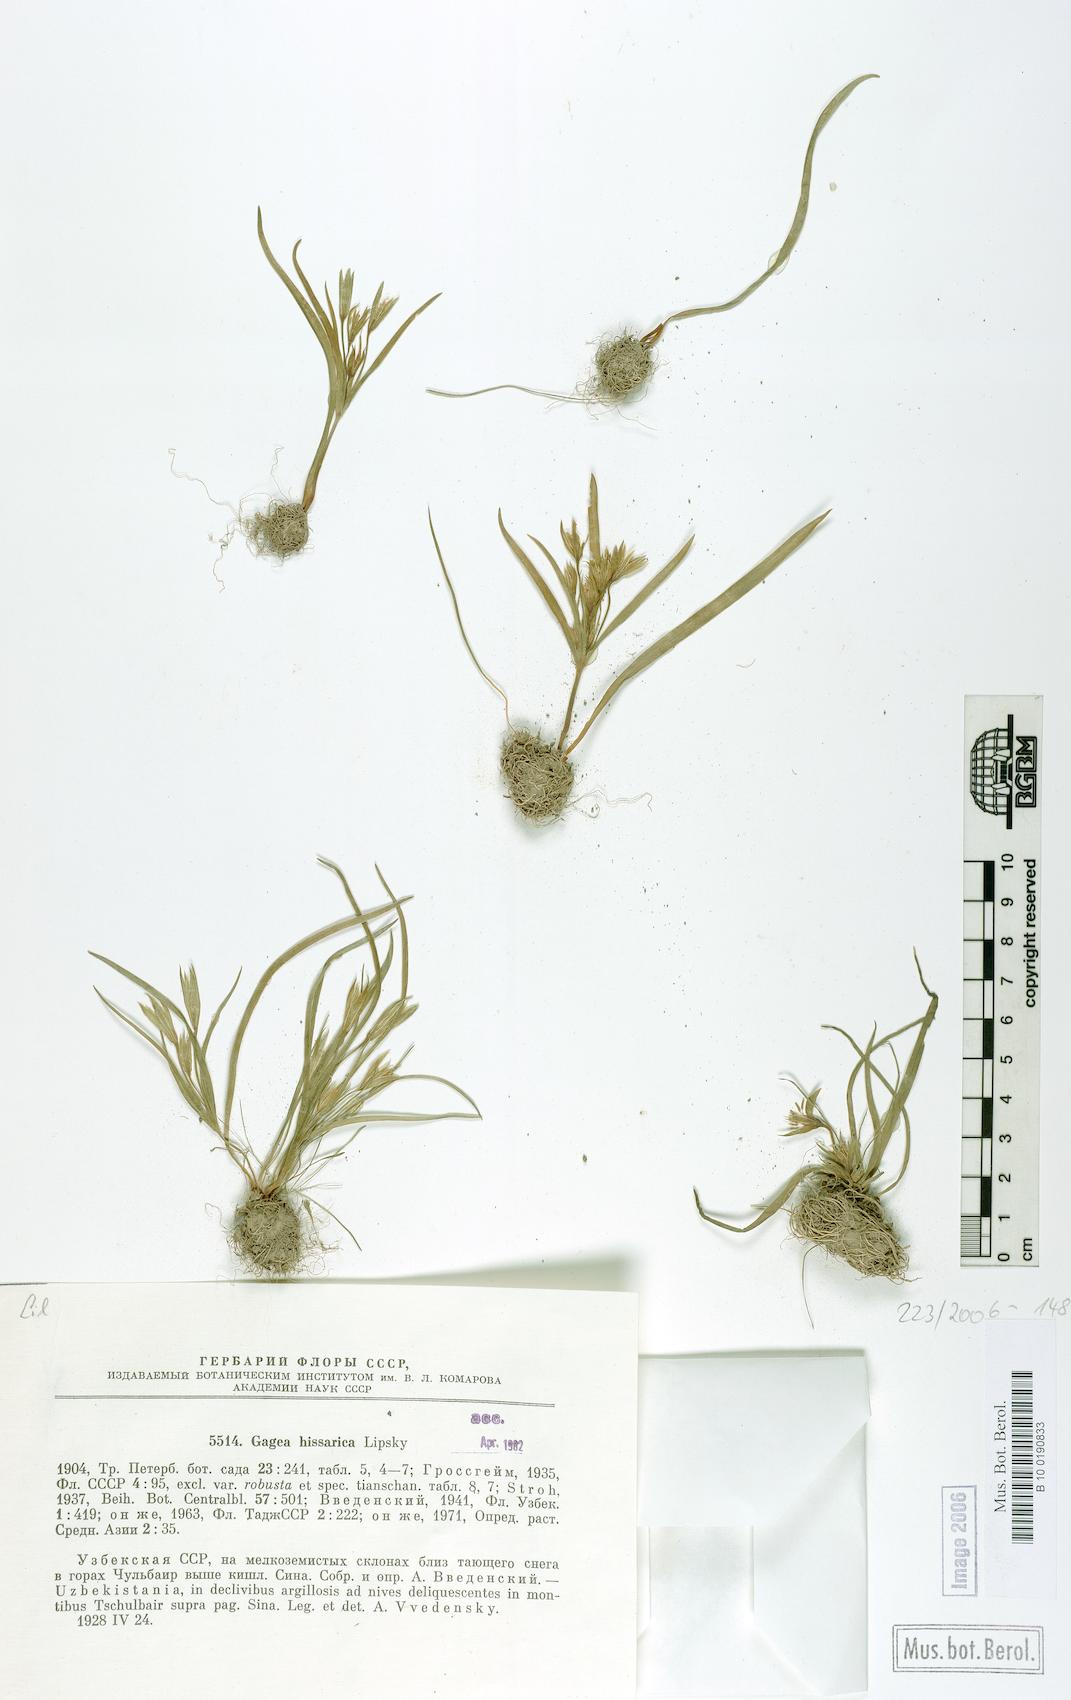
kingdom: Plantae
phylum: Tracheophyta
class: Liliopsida
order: Liliales
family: Liliaceae
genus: Gagea
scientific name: Gagea hissarica
